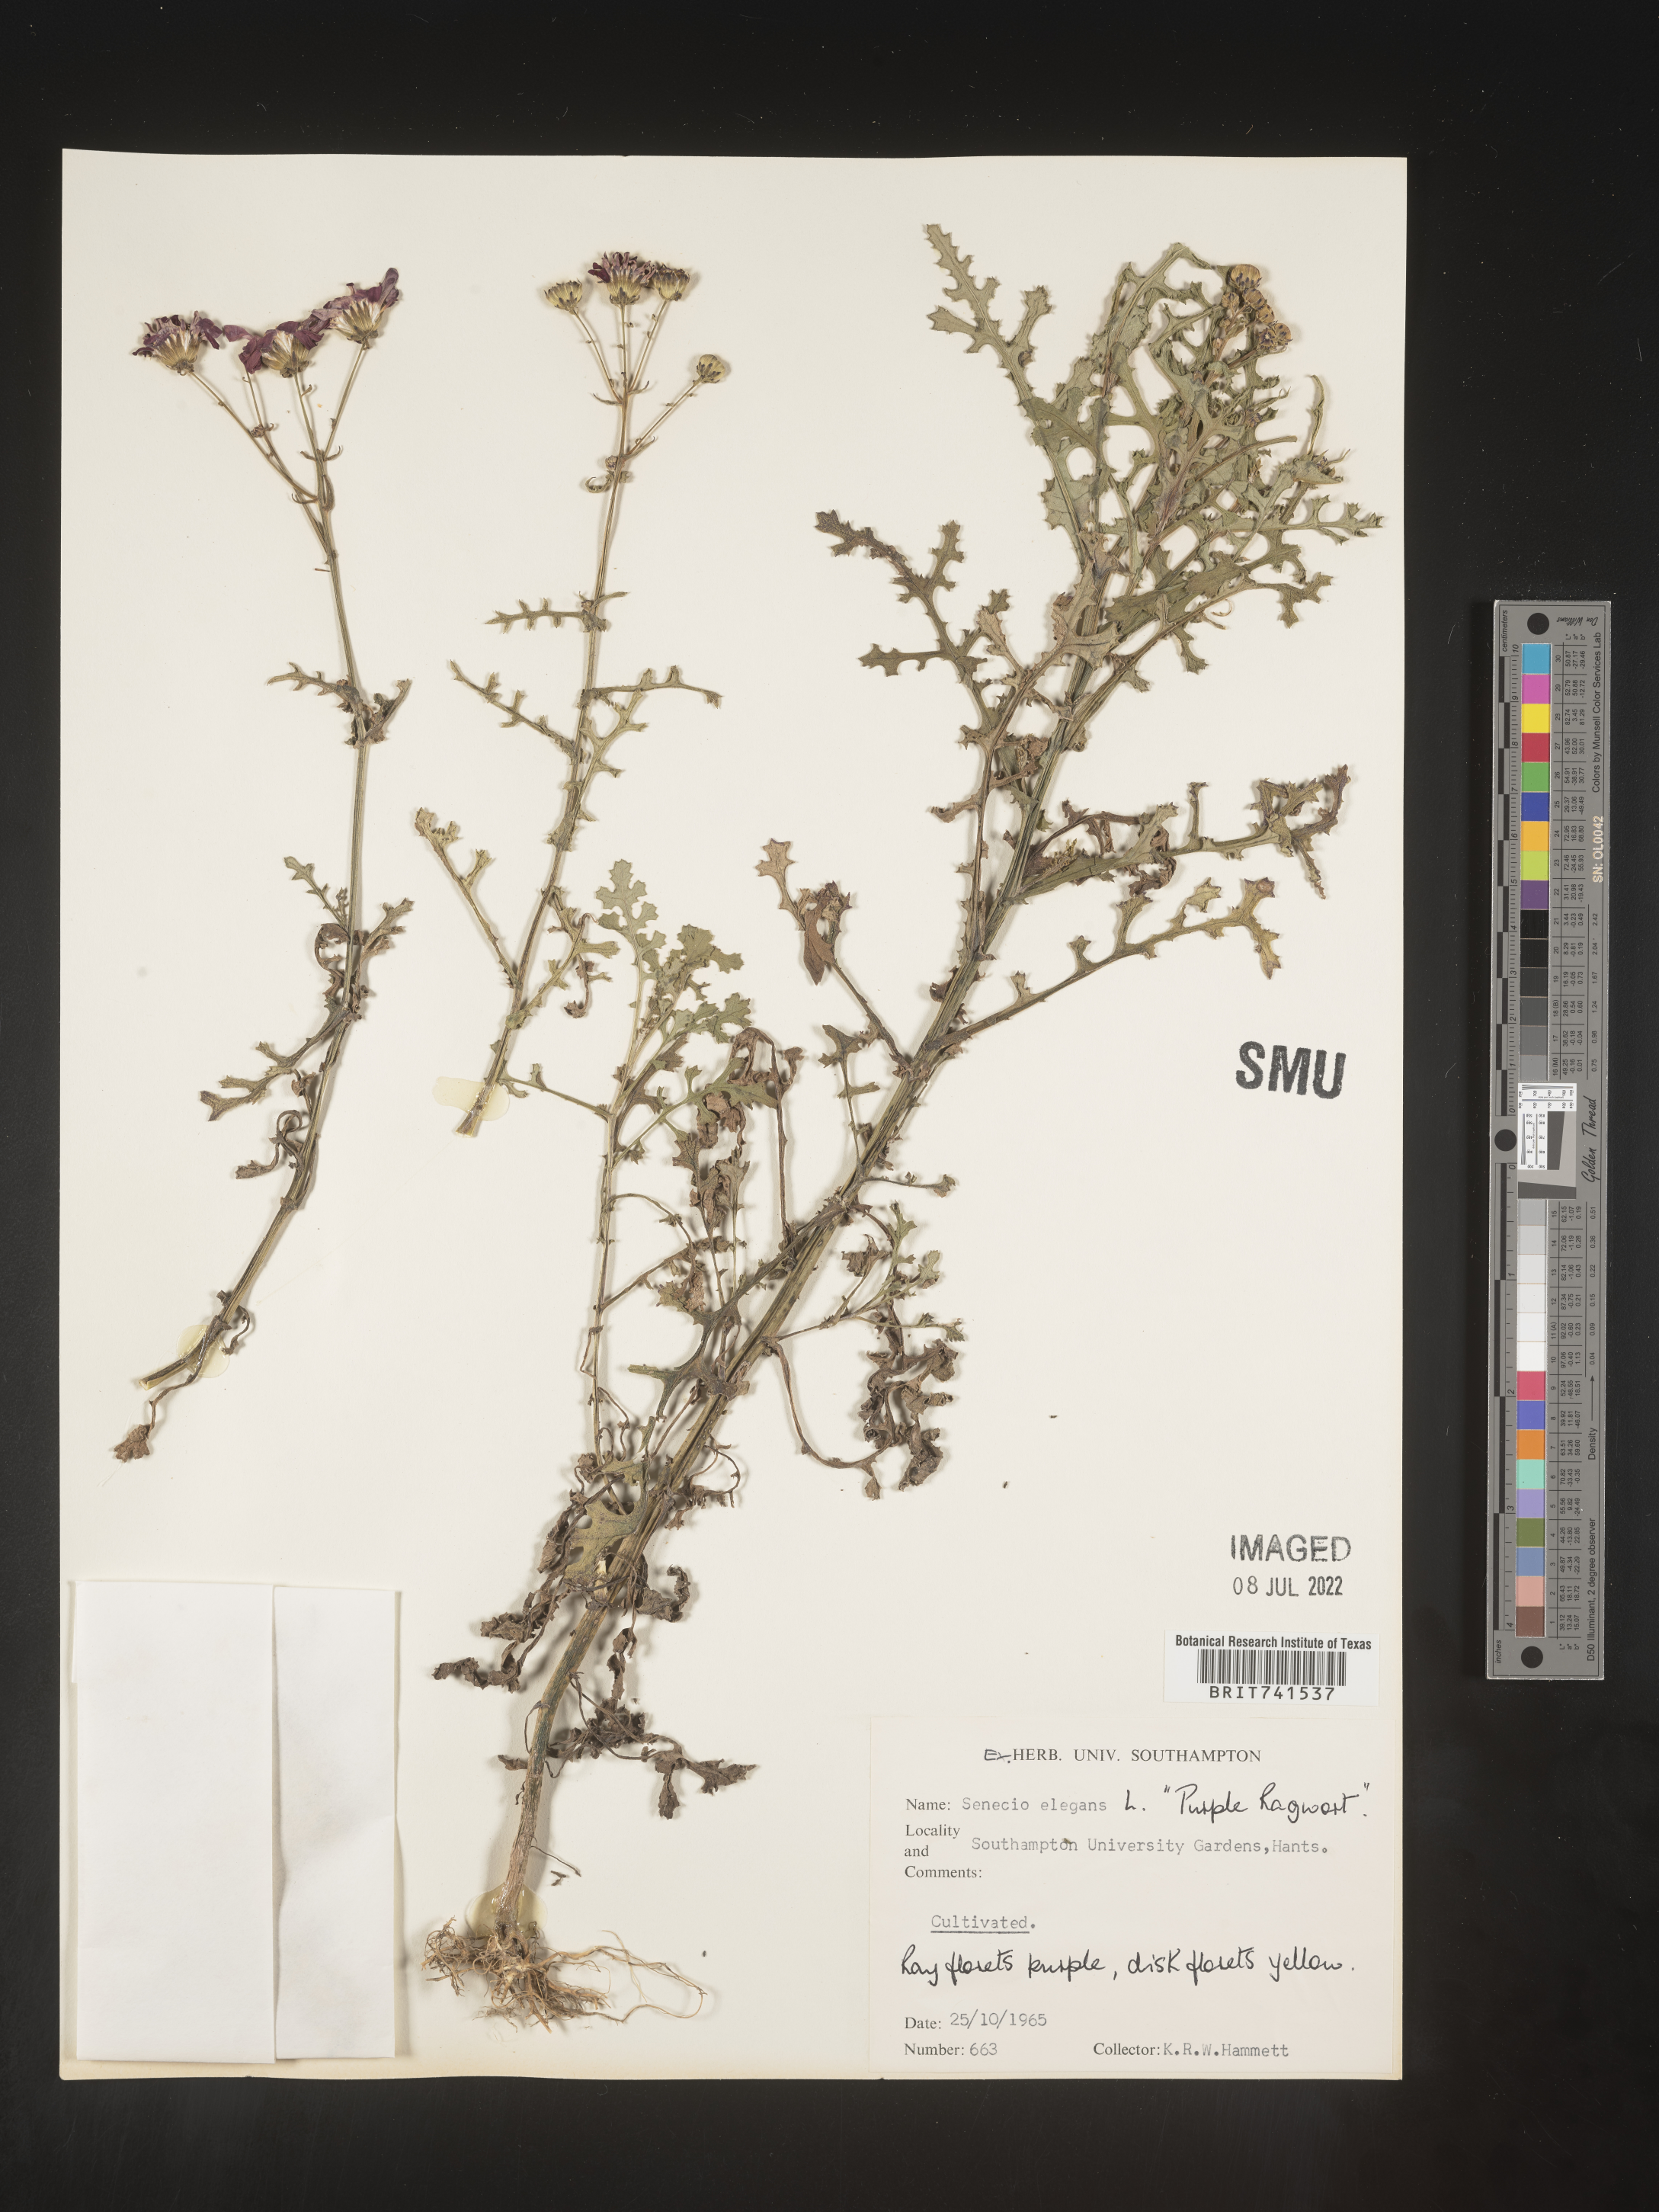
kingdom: Plantae
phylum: Tracheophyta
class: Magnoliopsida
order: Asterales
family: Asteraceae
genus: Senecio
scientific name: Senecio
